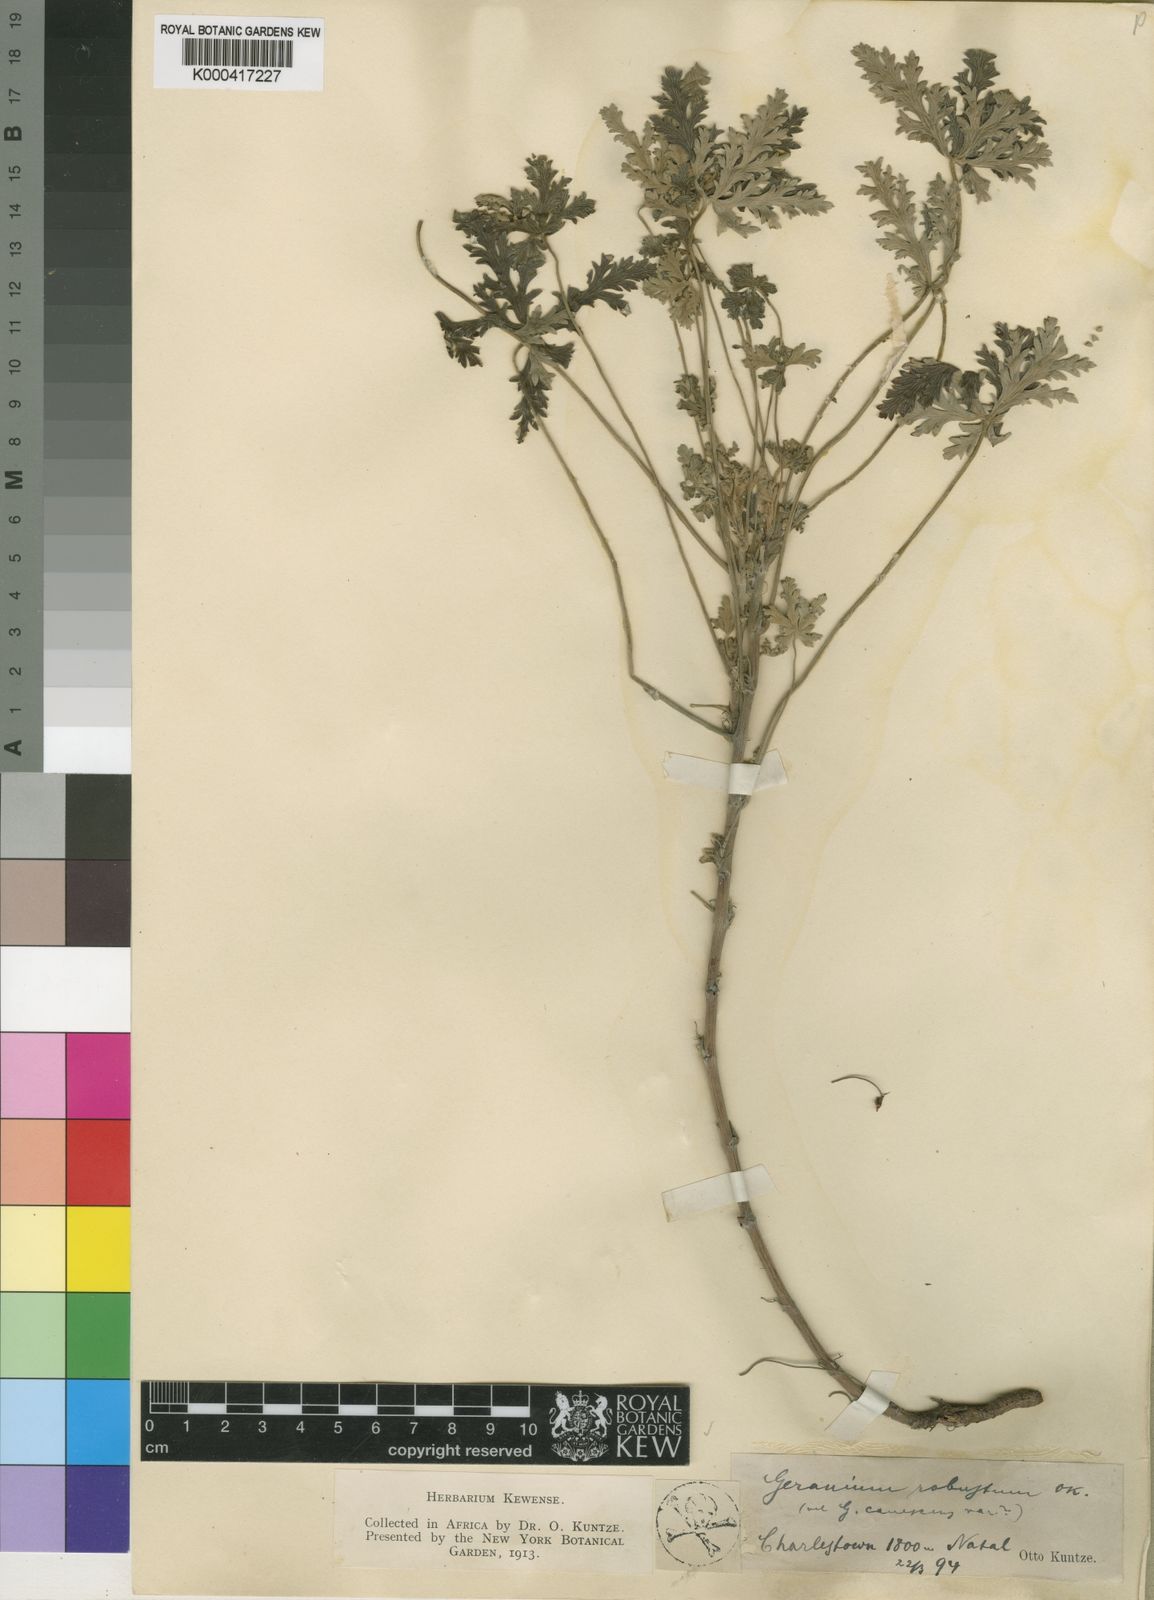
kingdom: Plantae
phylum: Tracheophyta
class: Magnoliopsida
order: Geraniales
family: Geraniaceae
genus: Geranium
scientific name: Geranium robustum
